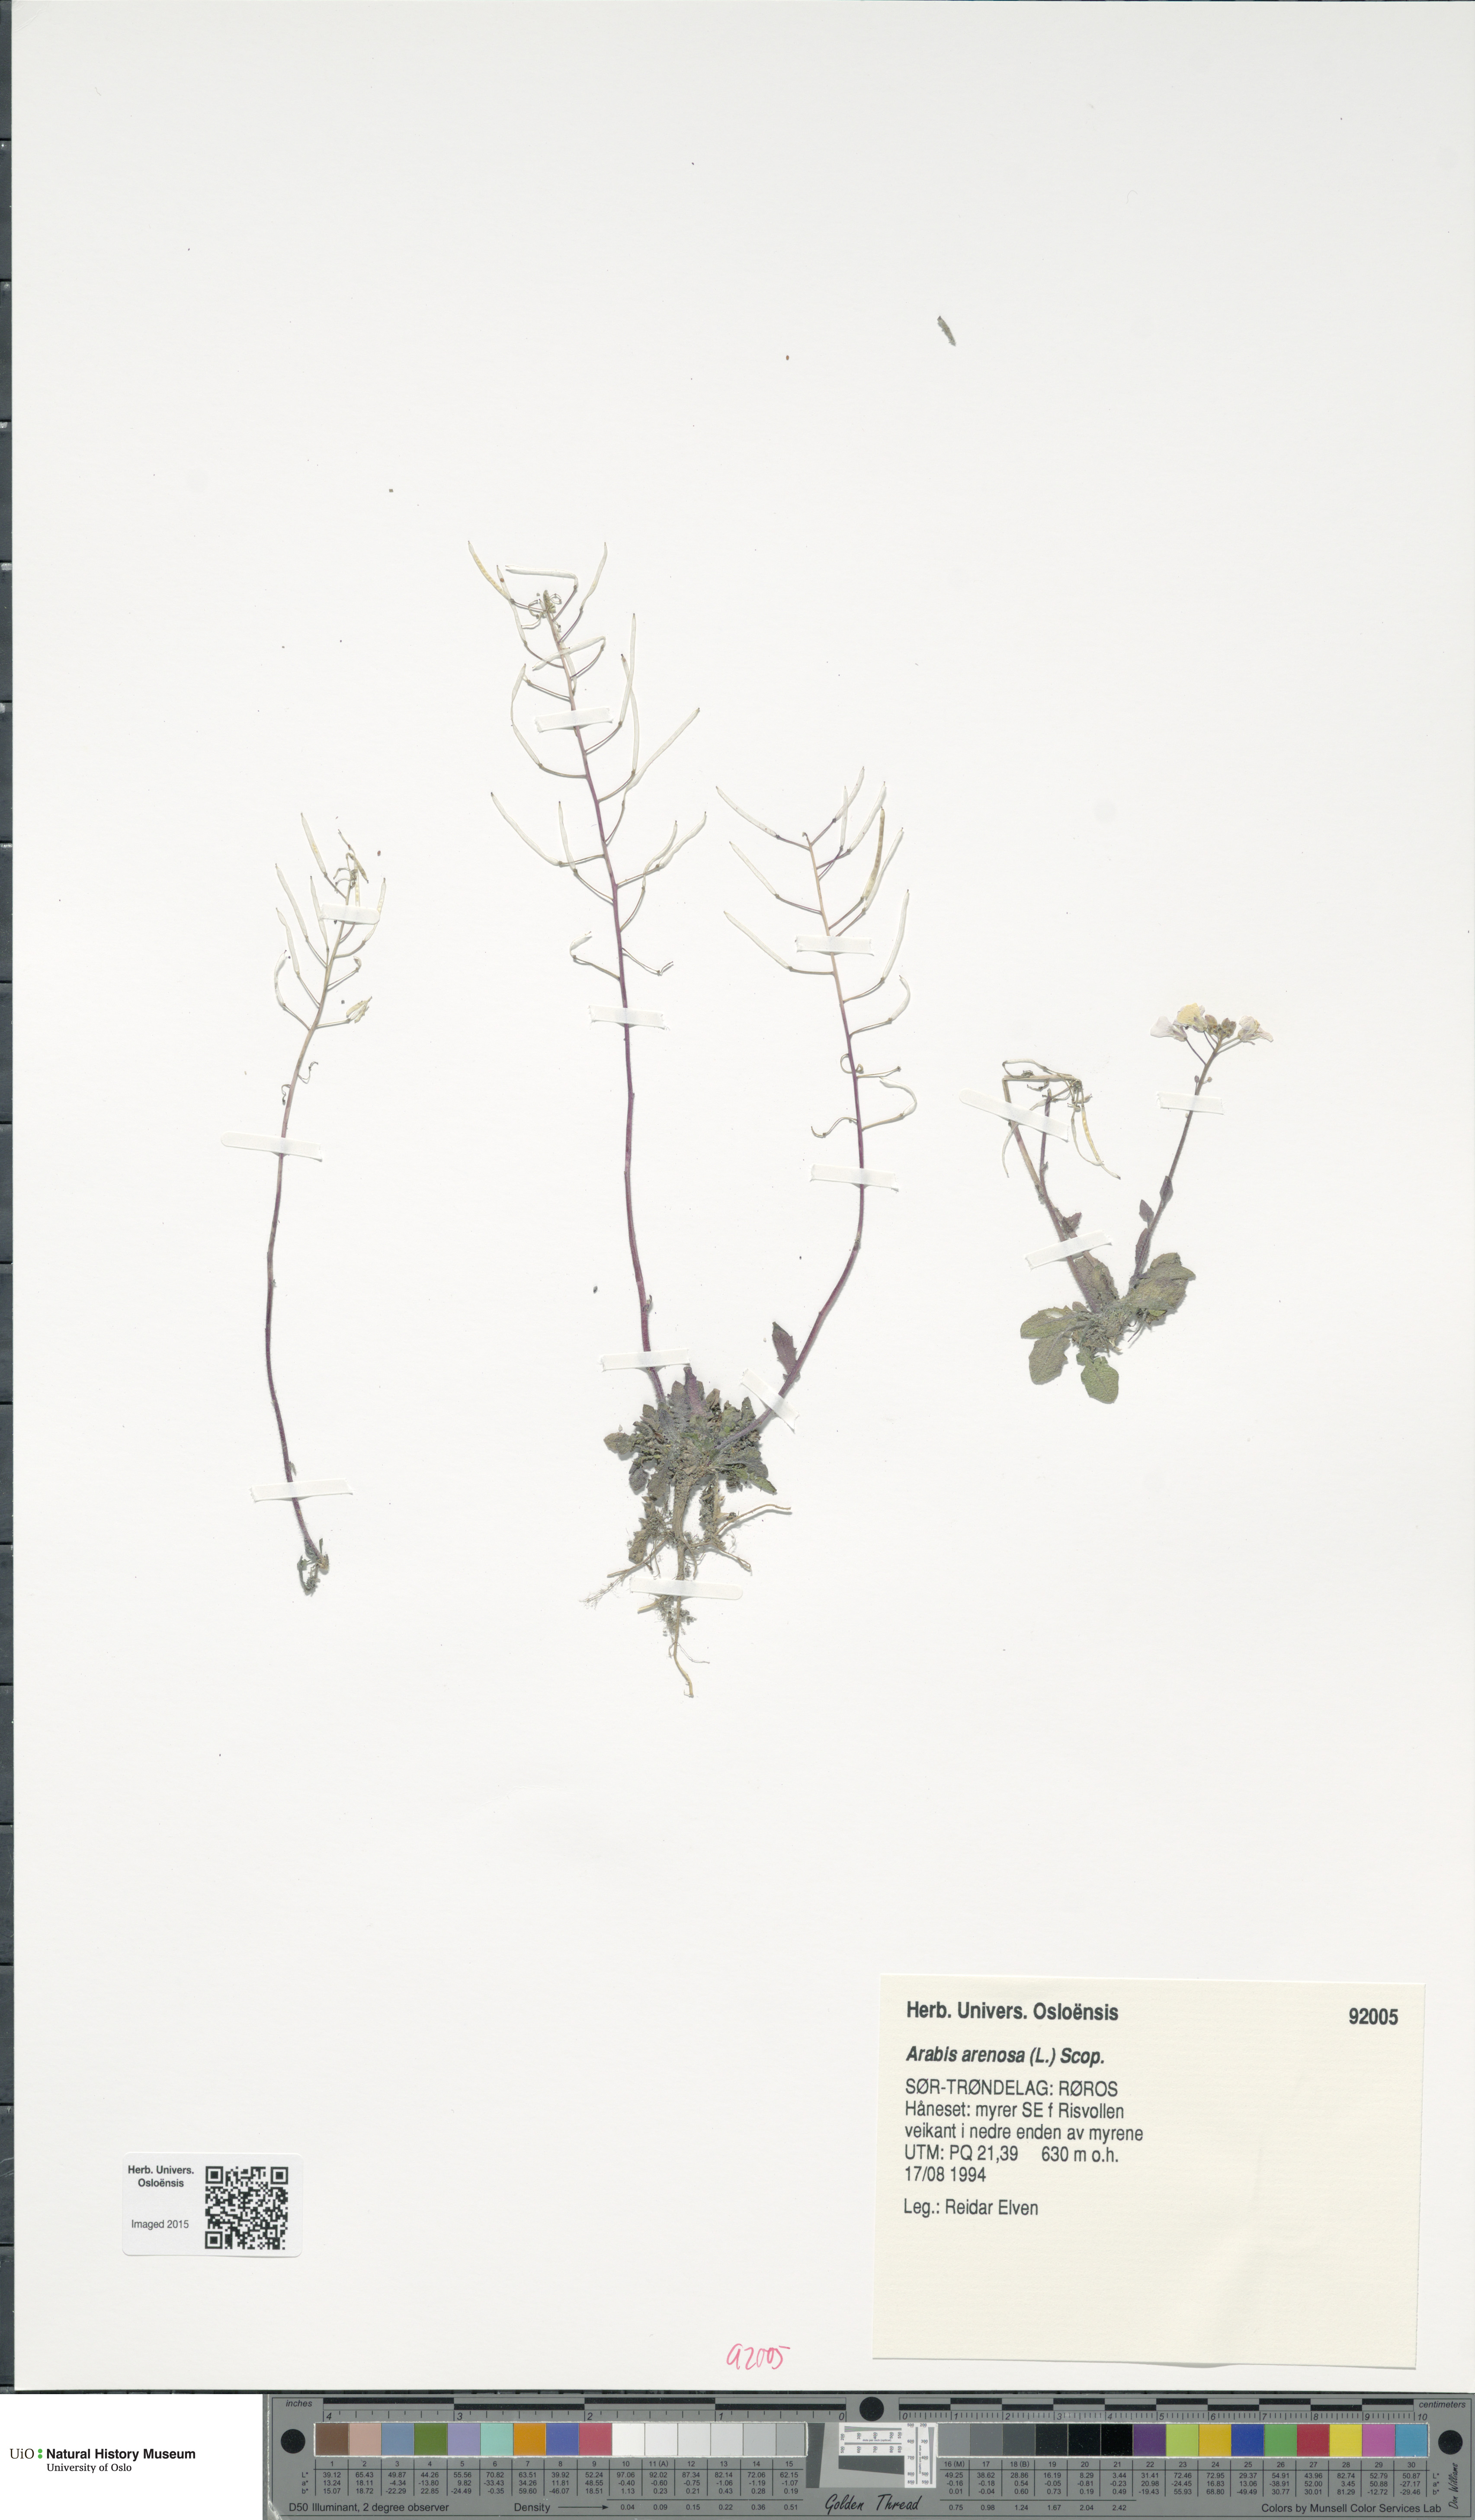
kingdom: Plantae
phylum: Tracheophyta
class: Magnoliopsida
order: Brassicales
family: Brassicaceae
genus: Arabidopsis
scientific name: Arabidopsis arenosa
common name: Sand rock-cress
